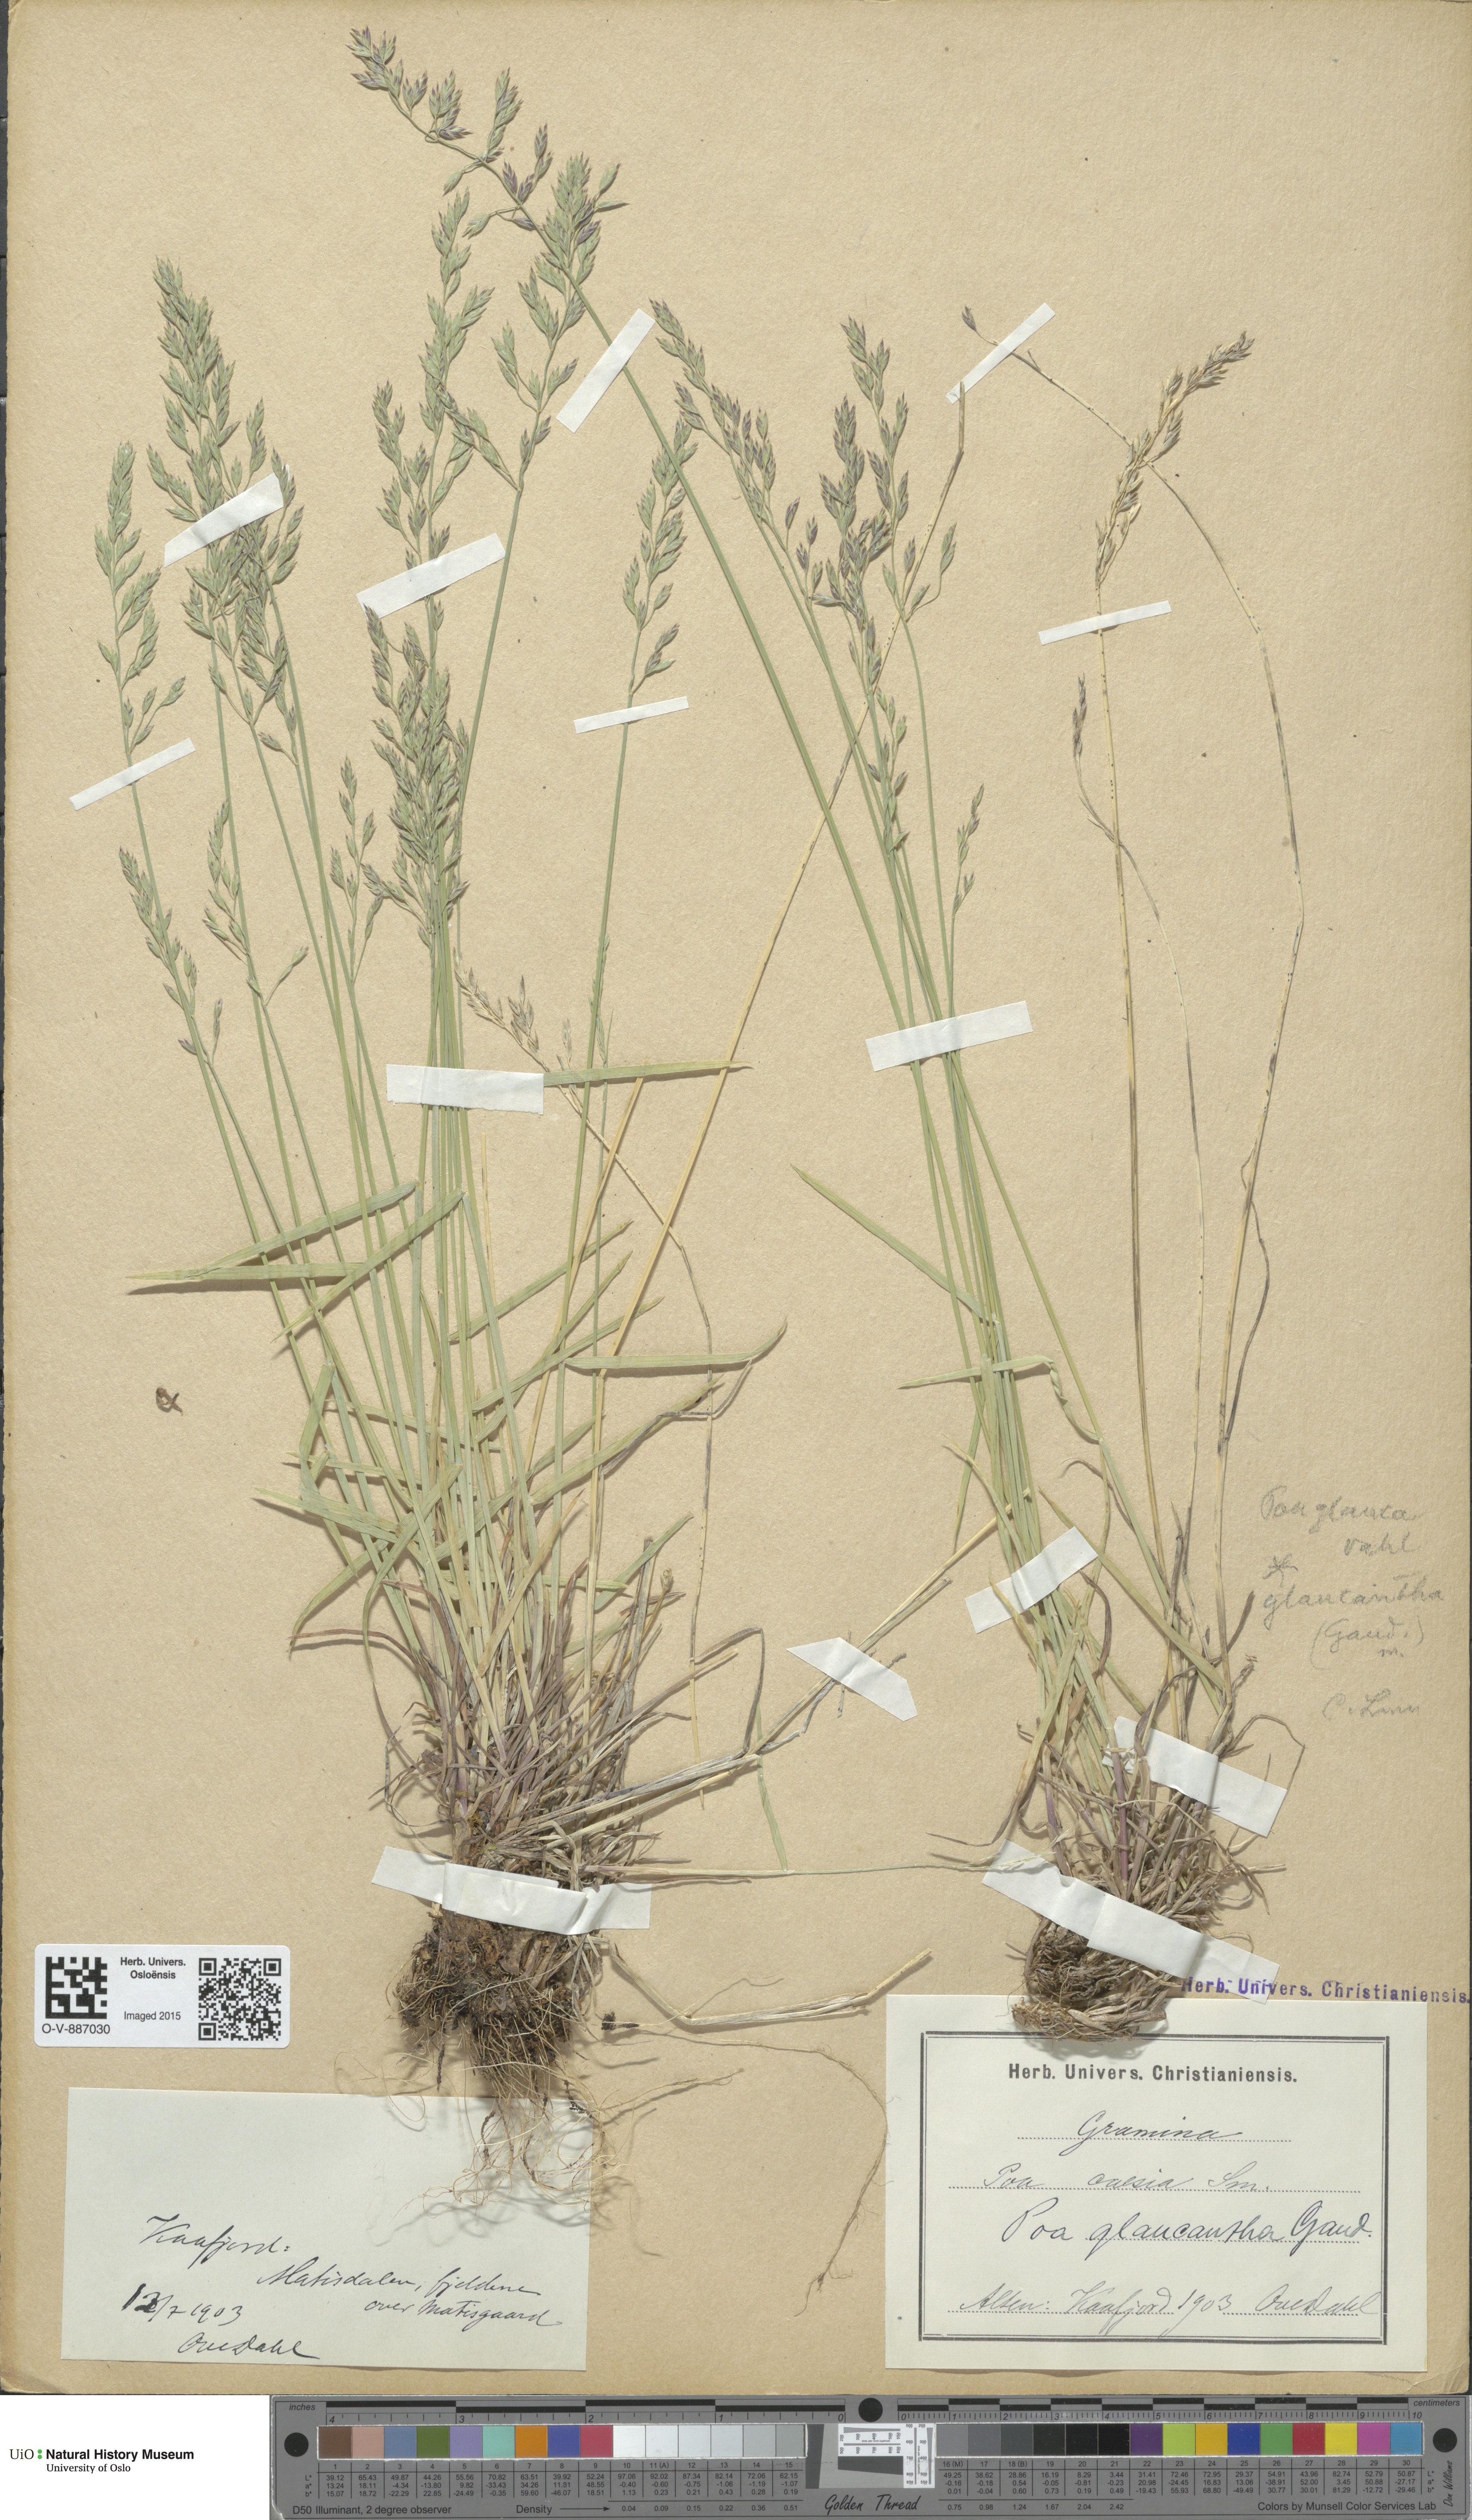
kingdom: Plantae
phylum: Tracheophyta
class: Liliopsida
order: Poales
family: Poaceae
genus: Poa
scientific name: Poa nemoralis
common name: Wood bluegrass
